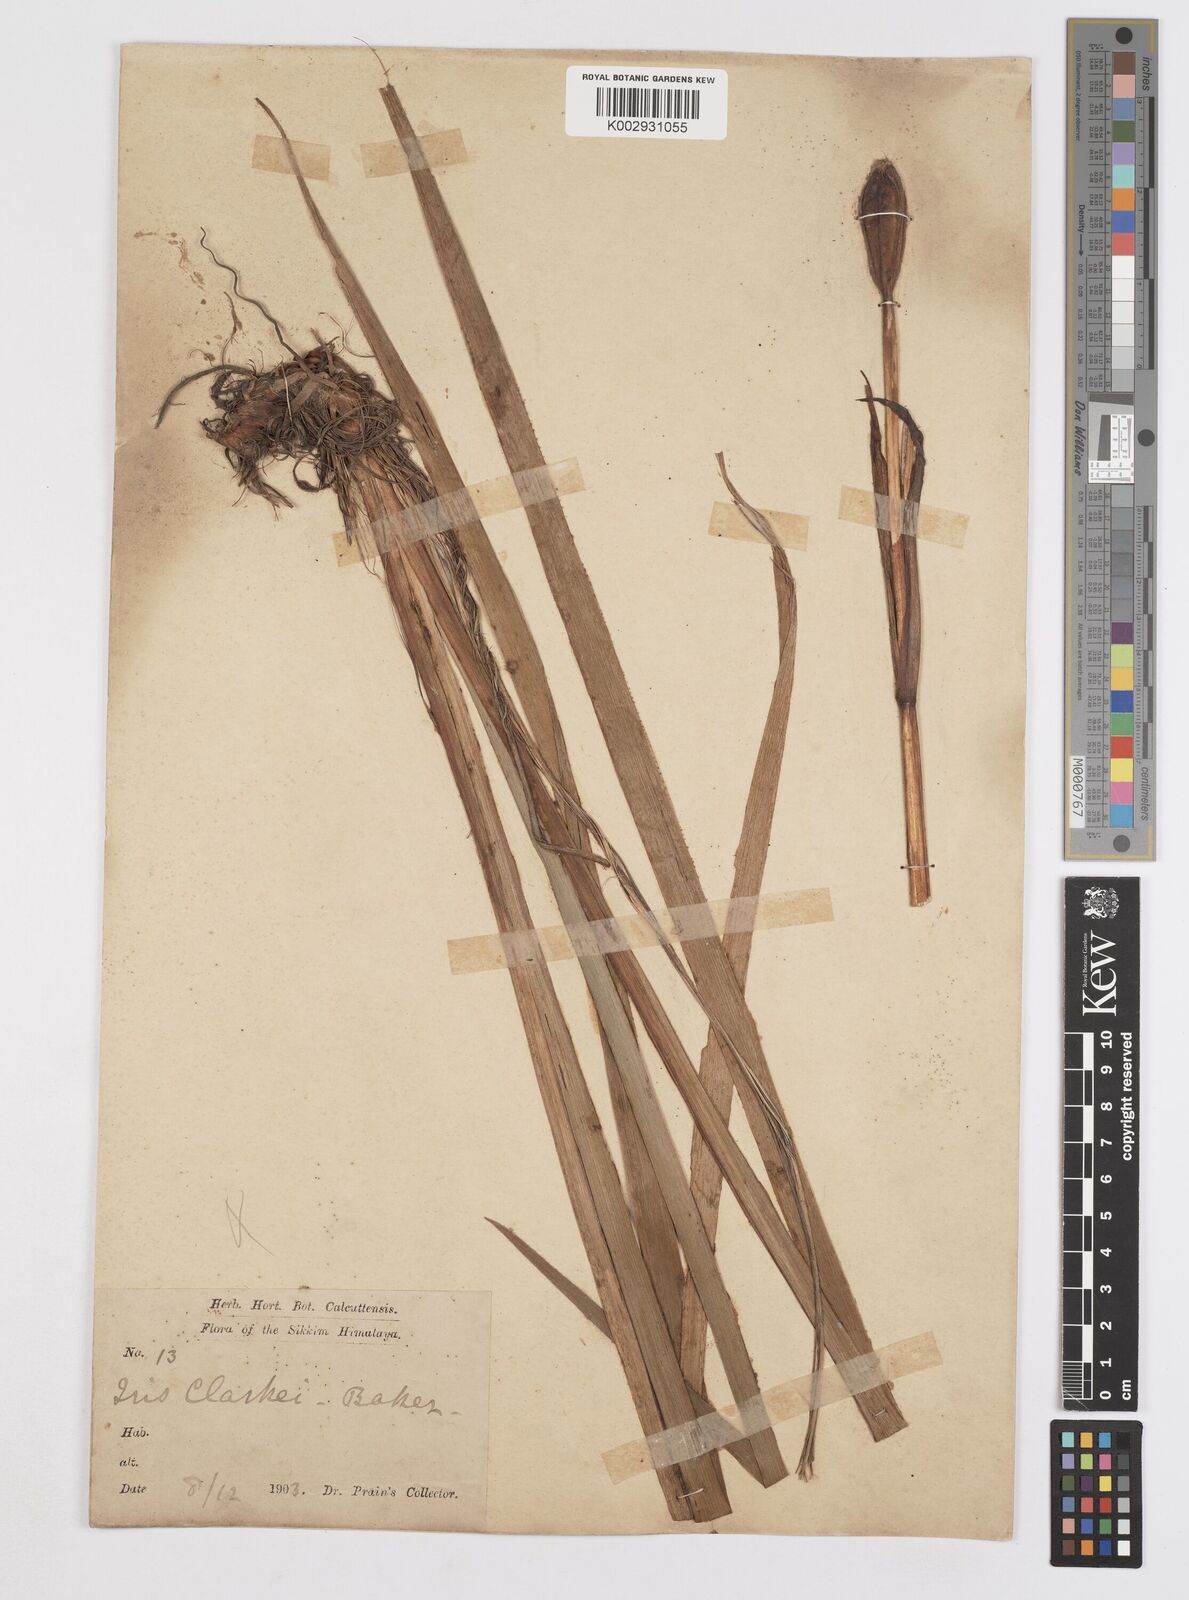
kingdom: Plantae
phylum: Tracheophyta
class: Liliopsida
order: Asparagales
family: Iridaceae
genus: Iris
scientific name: Iris clarkei
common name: Tibet iris
